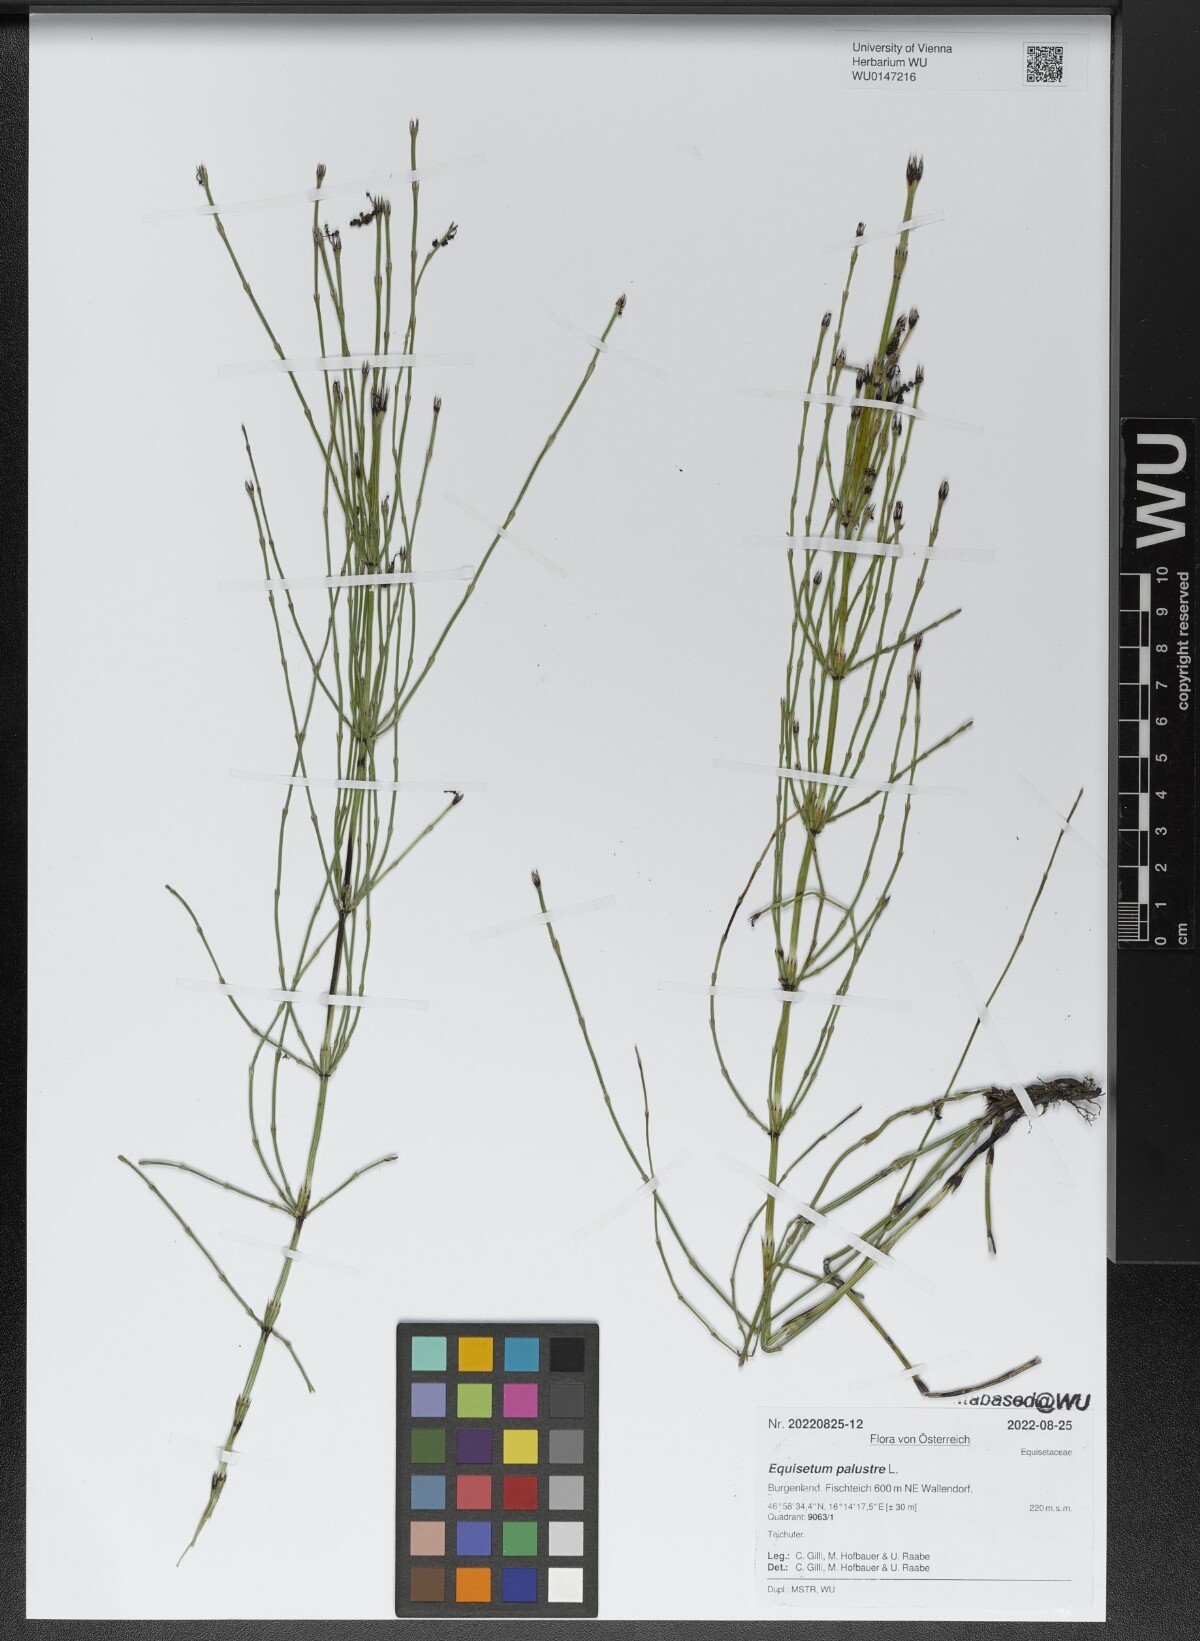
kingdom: Plantae
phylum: Tracheophyta
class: Polypodiopsida
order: Equisetales
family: Equisetaceae
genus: Equisetum
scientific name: Equisetum palustre
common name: Marsh horsetail
